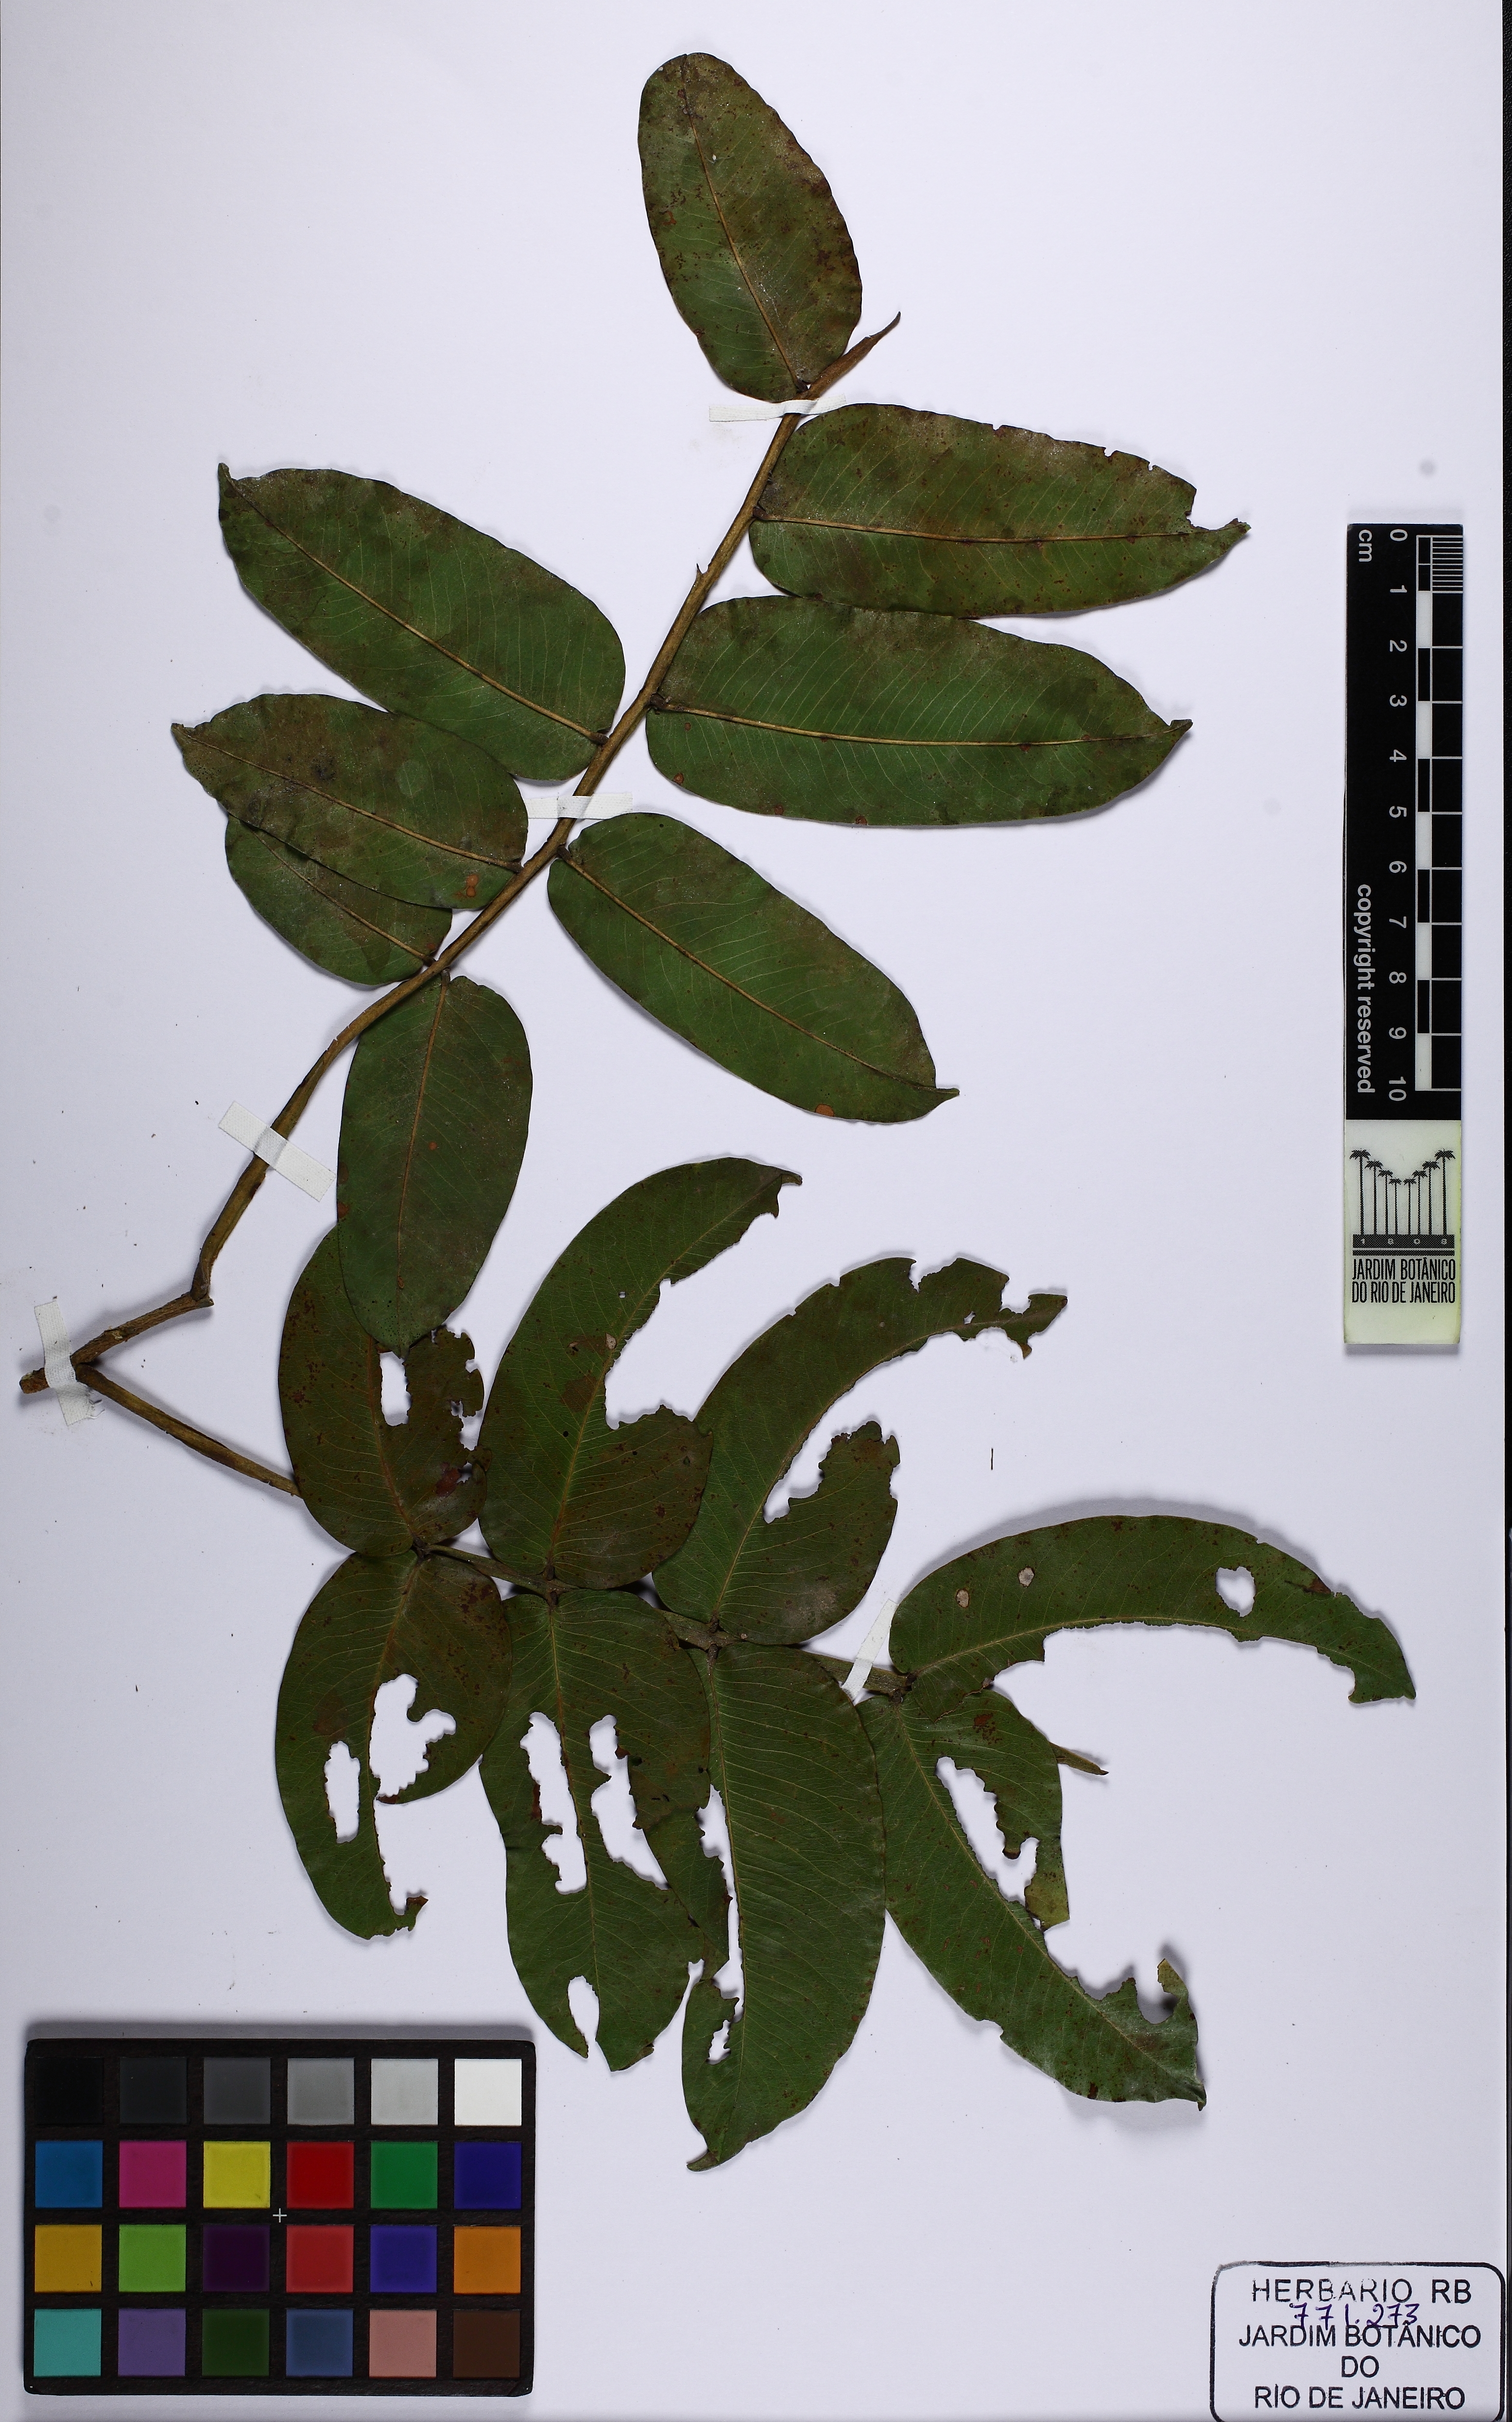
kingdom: Plantae
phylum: Tracheophyta
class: Magnoliopsida
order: Fabales
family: Fabaceae
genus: Dipteryx
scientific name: Dipteryx alata
